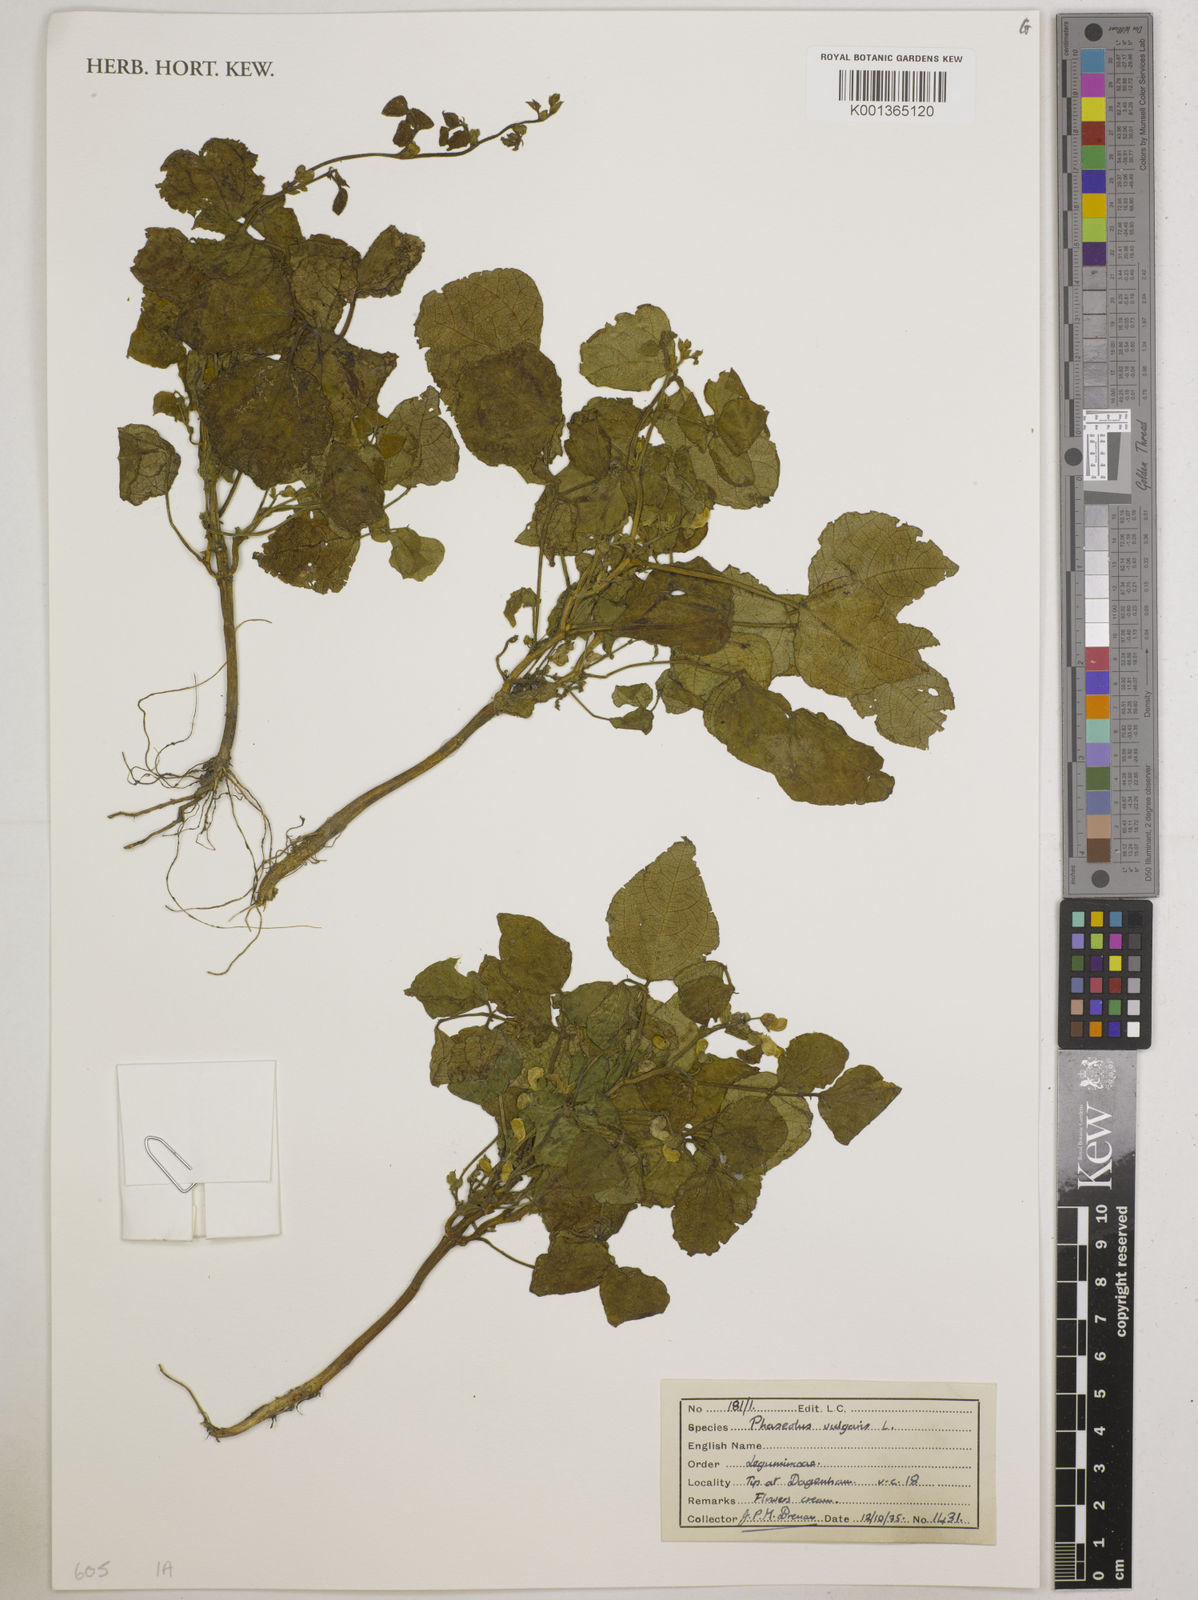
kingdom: Plantae
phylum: Tracheophyta
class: Magnoliopsida
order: Fabales
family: Fabaceae
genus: Phaseolus
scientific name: Phaseolus vulgaris
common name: Bean
